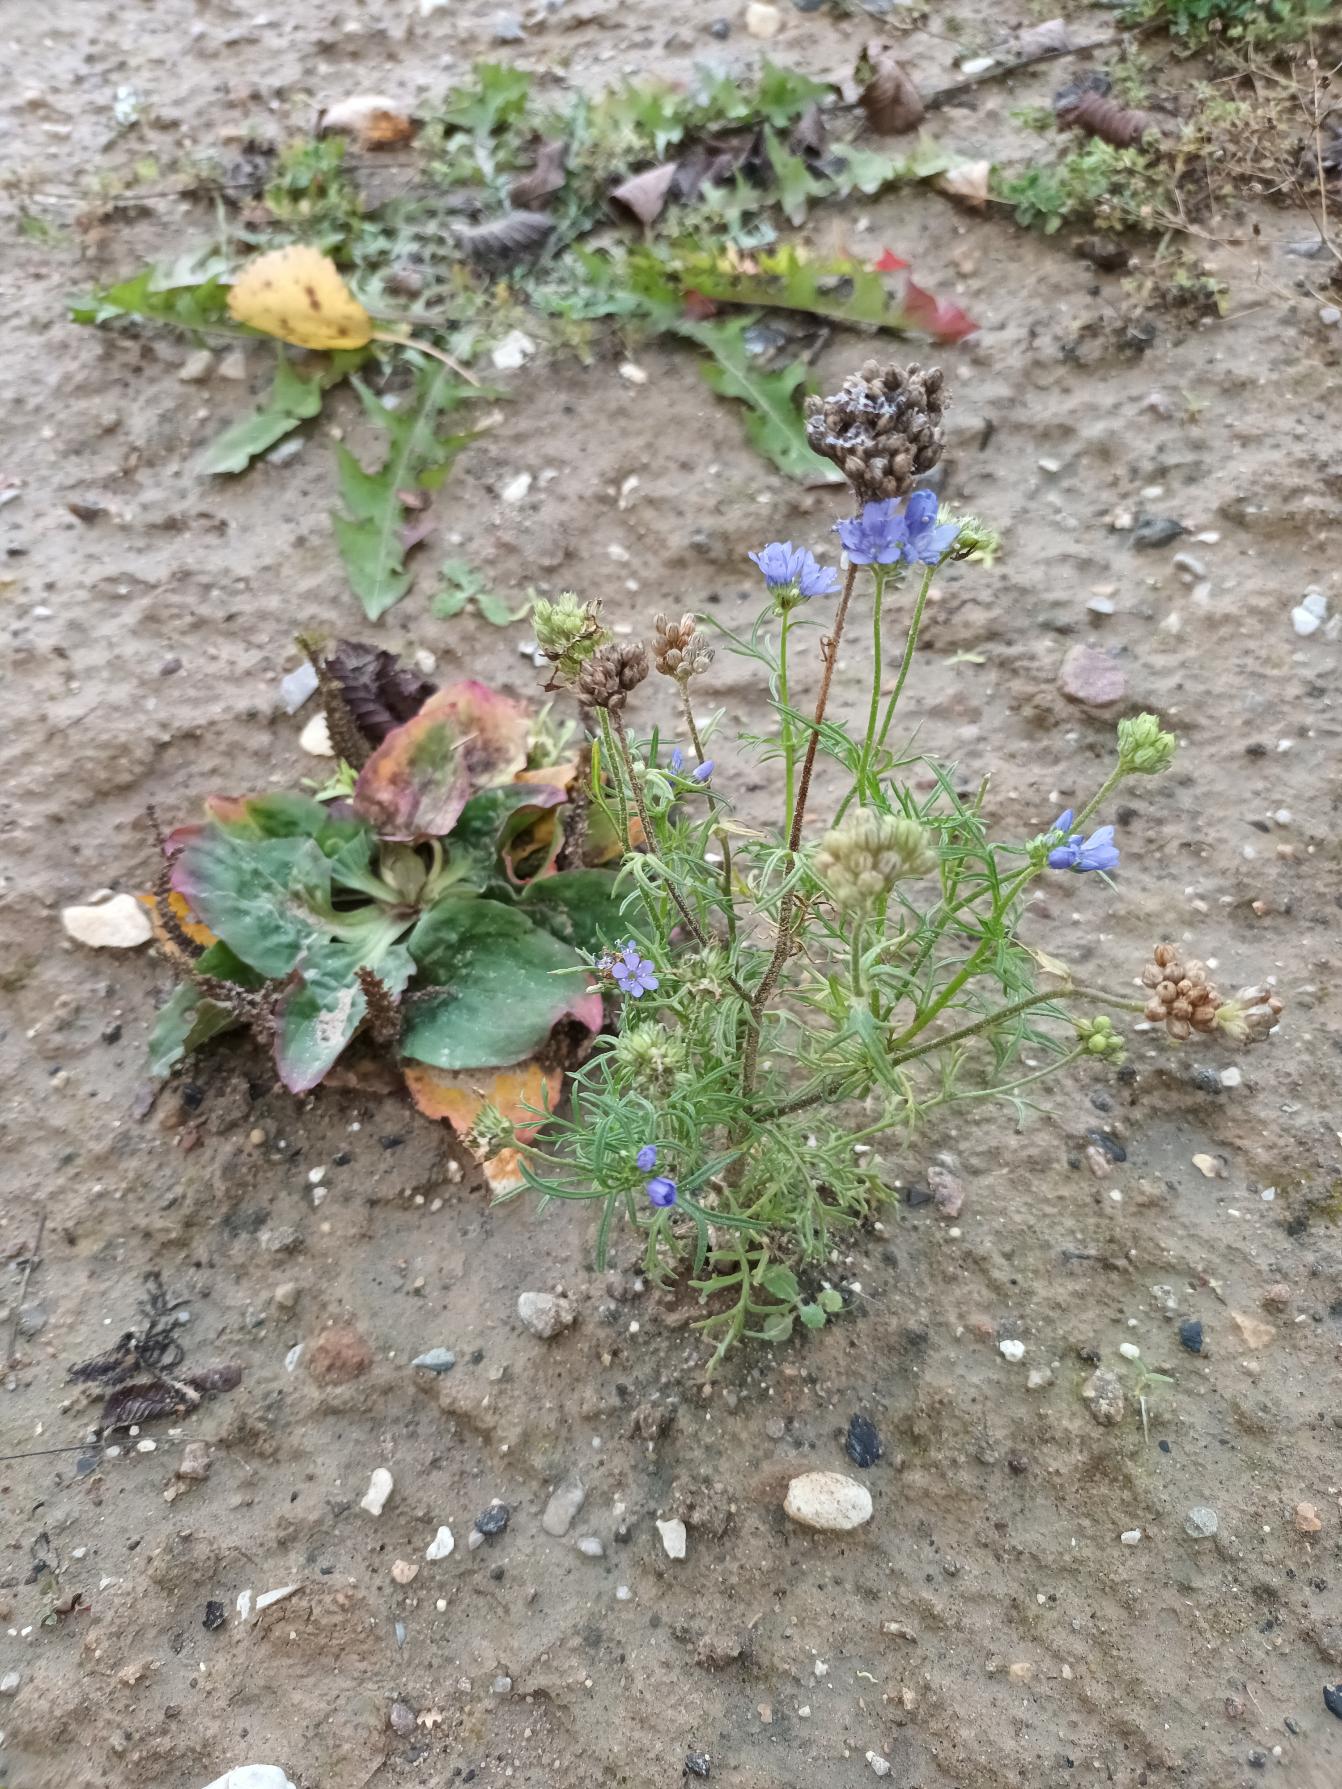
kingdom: Plantae
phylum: Tracheophyta
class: Magnoliopsida
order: Ericales
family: Polemoniaceae
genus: Gilia
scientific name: Gilia achilleifolia
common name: Fjer-blåhoved
